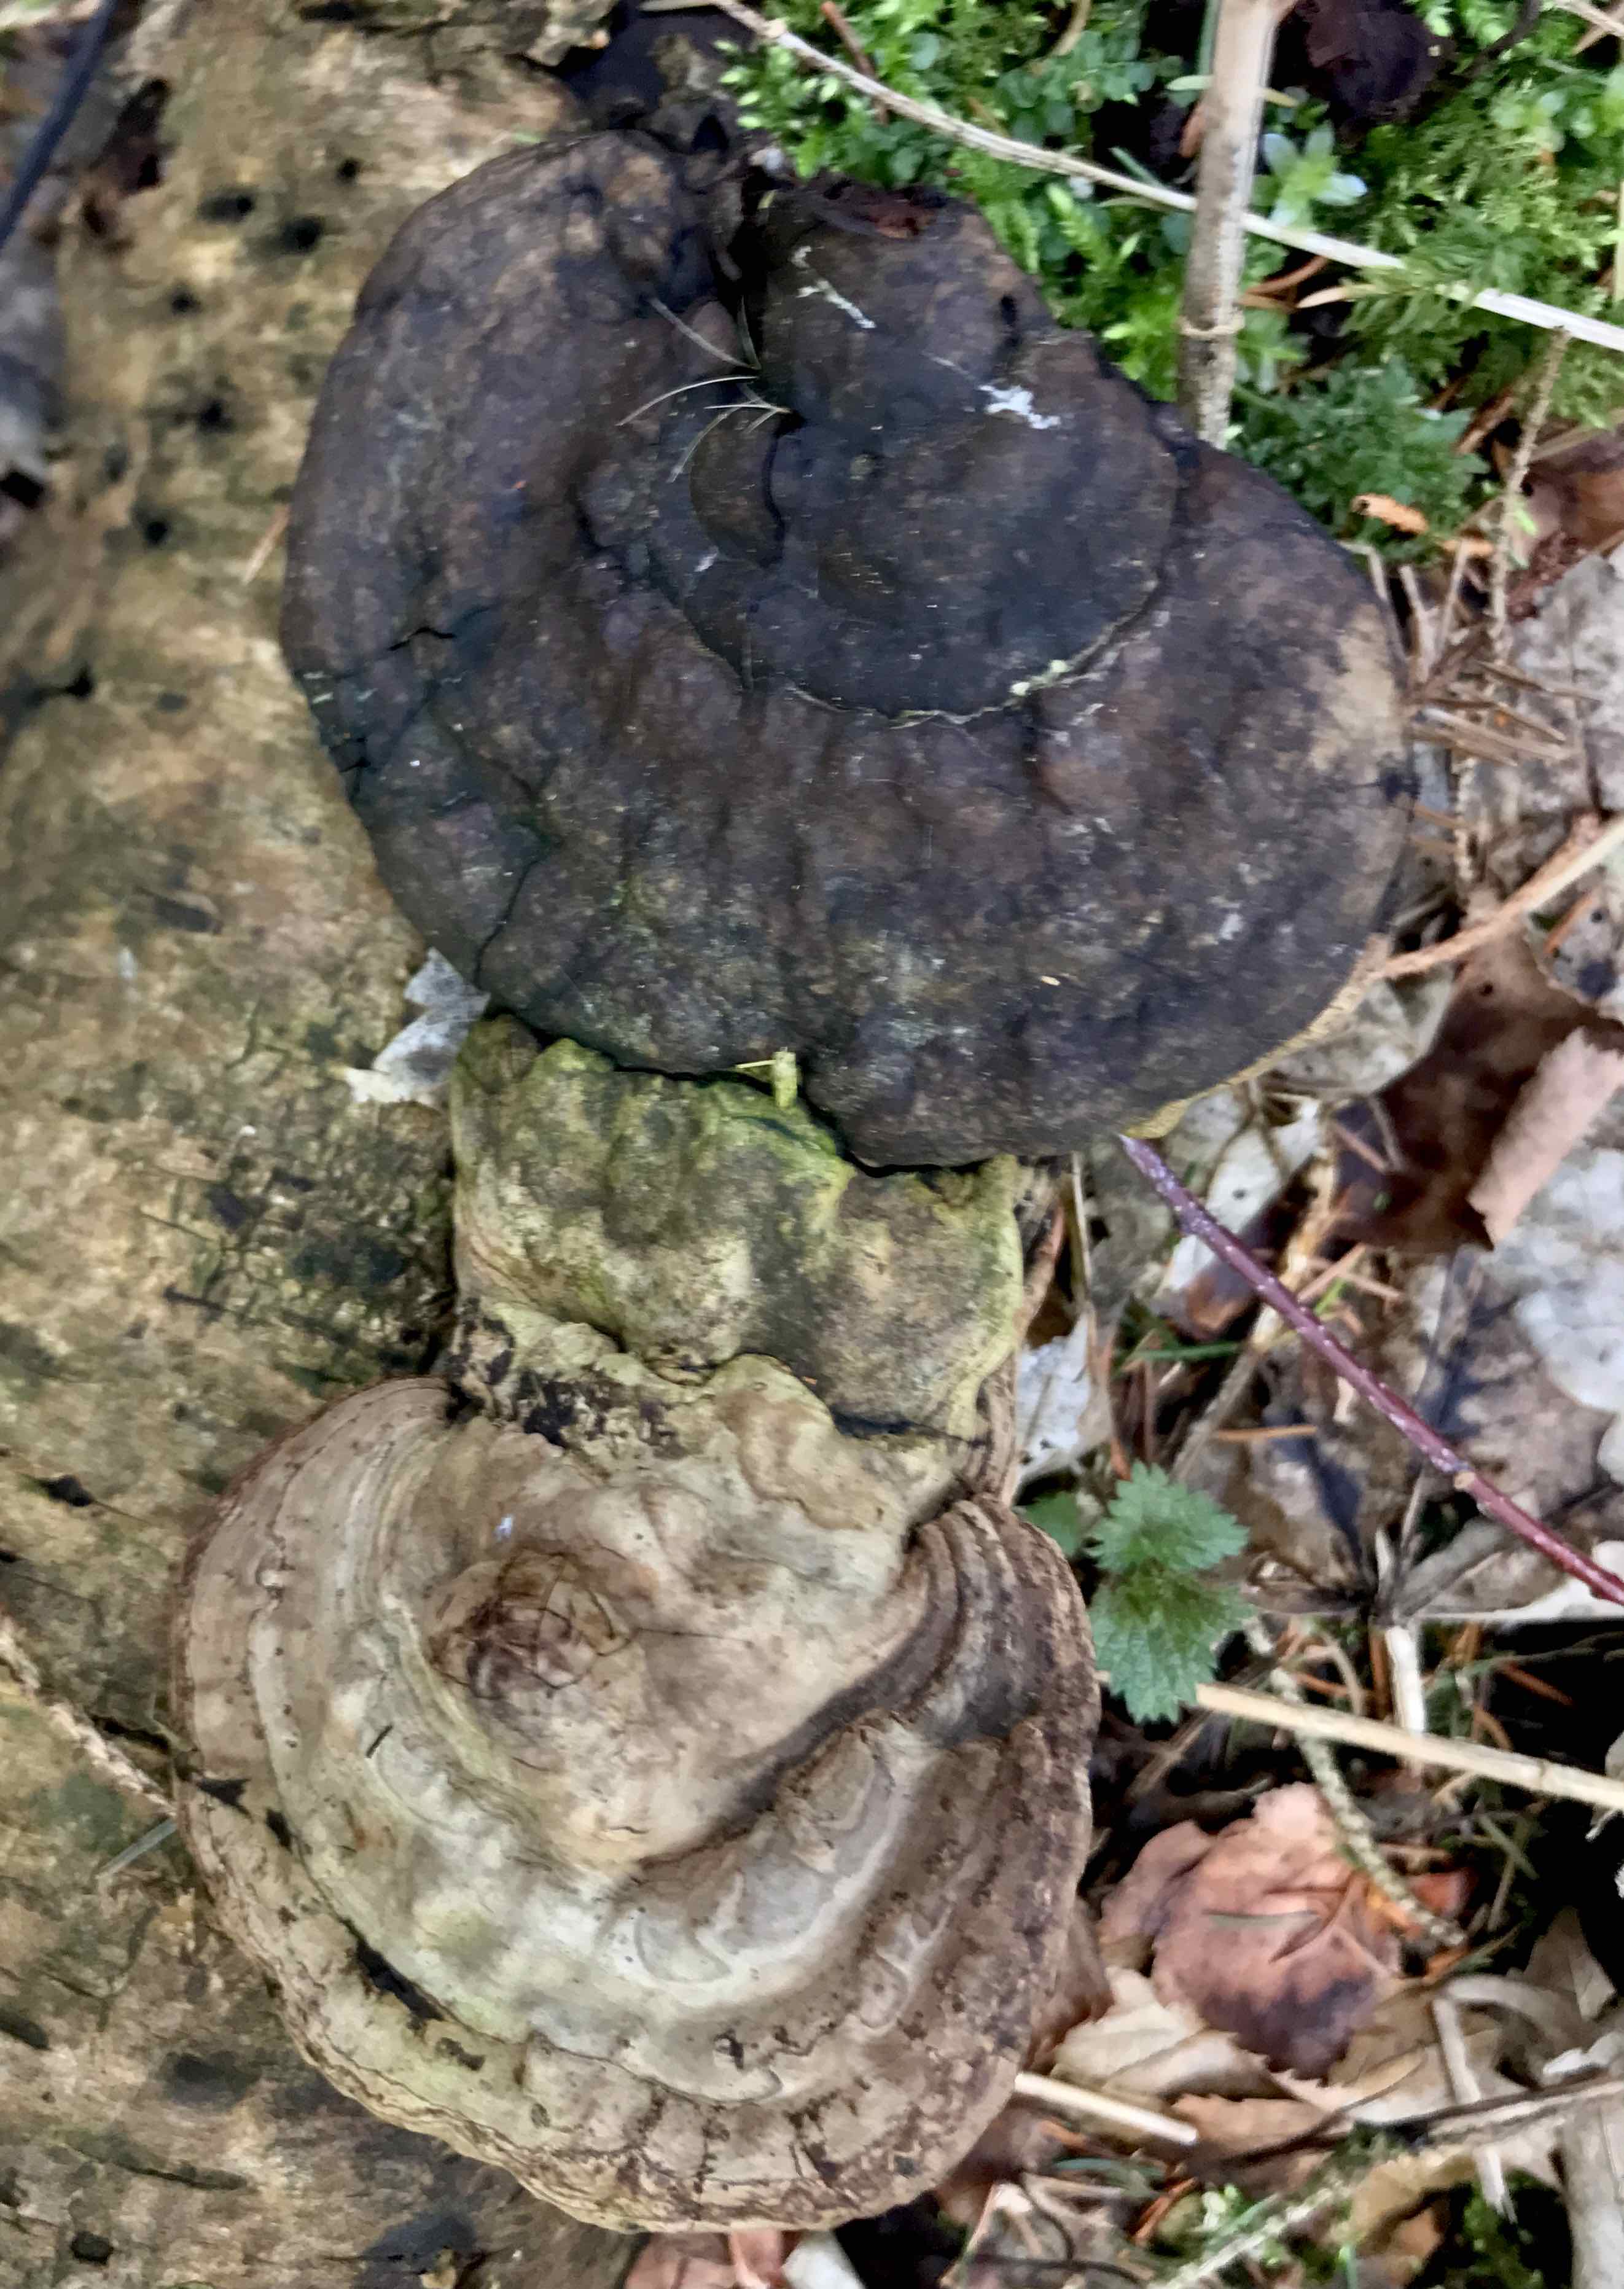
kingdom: Fungi
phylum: Basidiomycota
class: Agaricomycetes
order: Polyporales
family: Polyporaceae
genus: Ganoderma
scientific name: Ganoderma applanatum
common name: flad lakporesvamp
